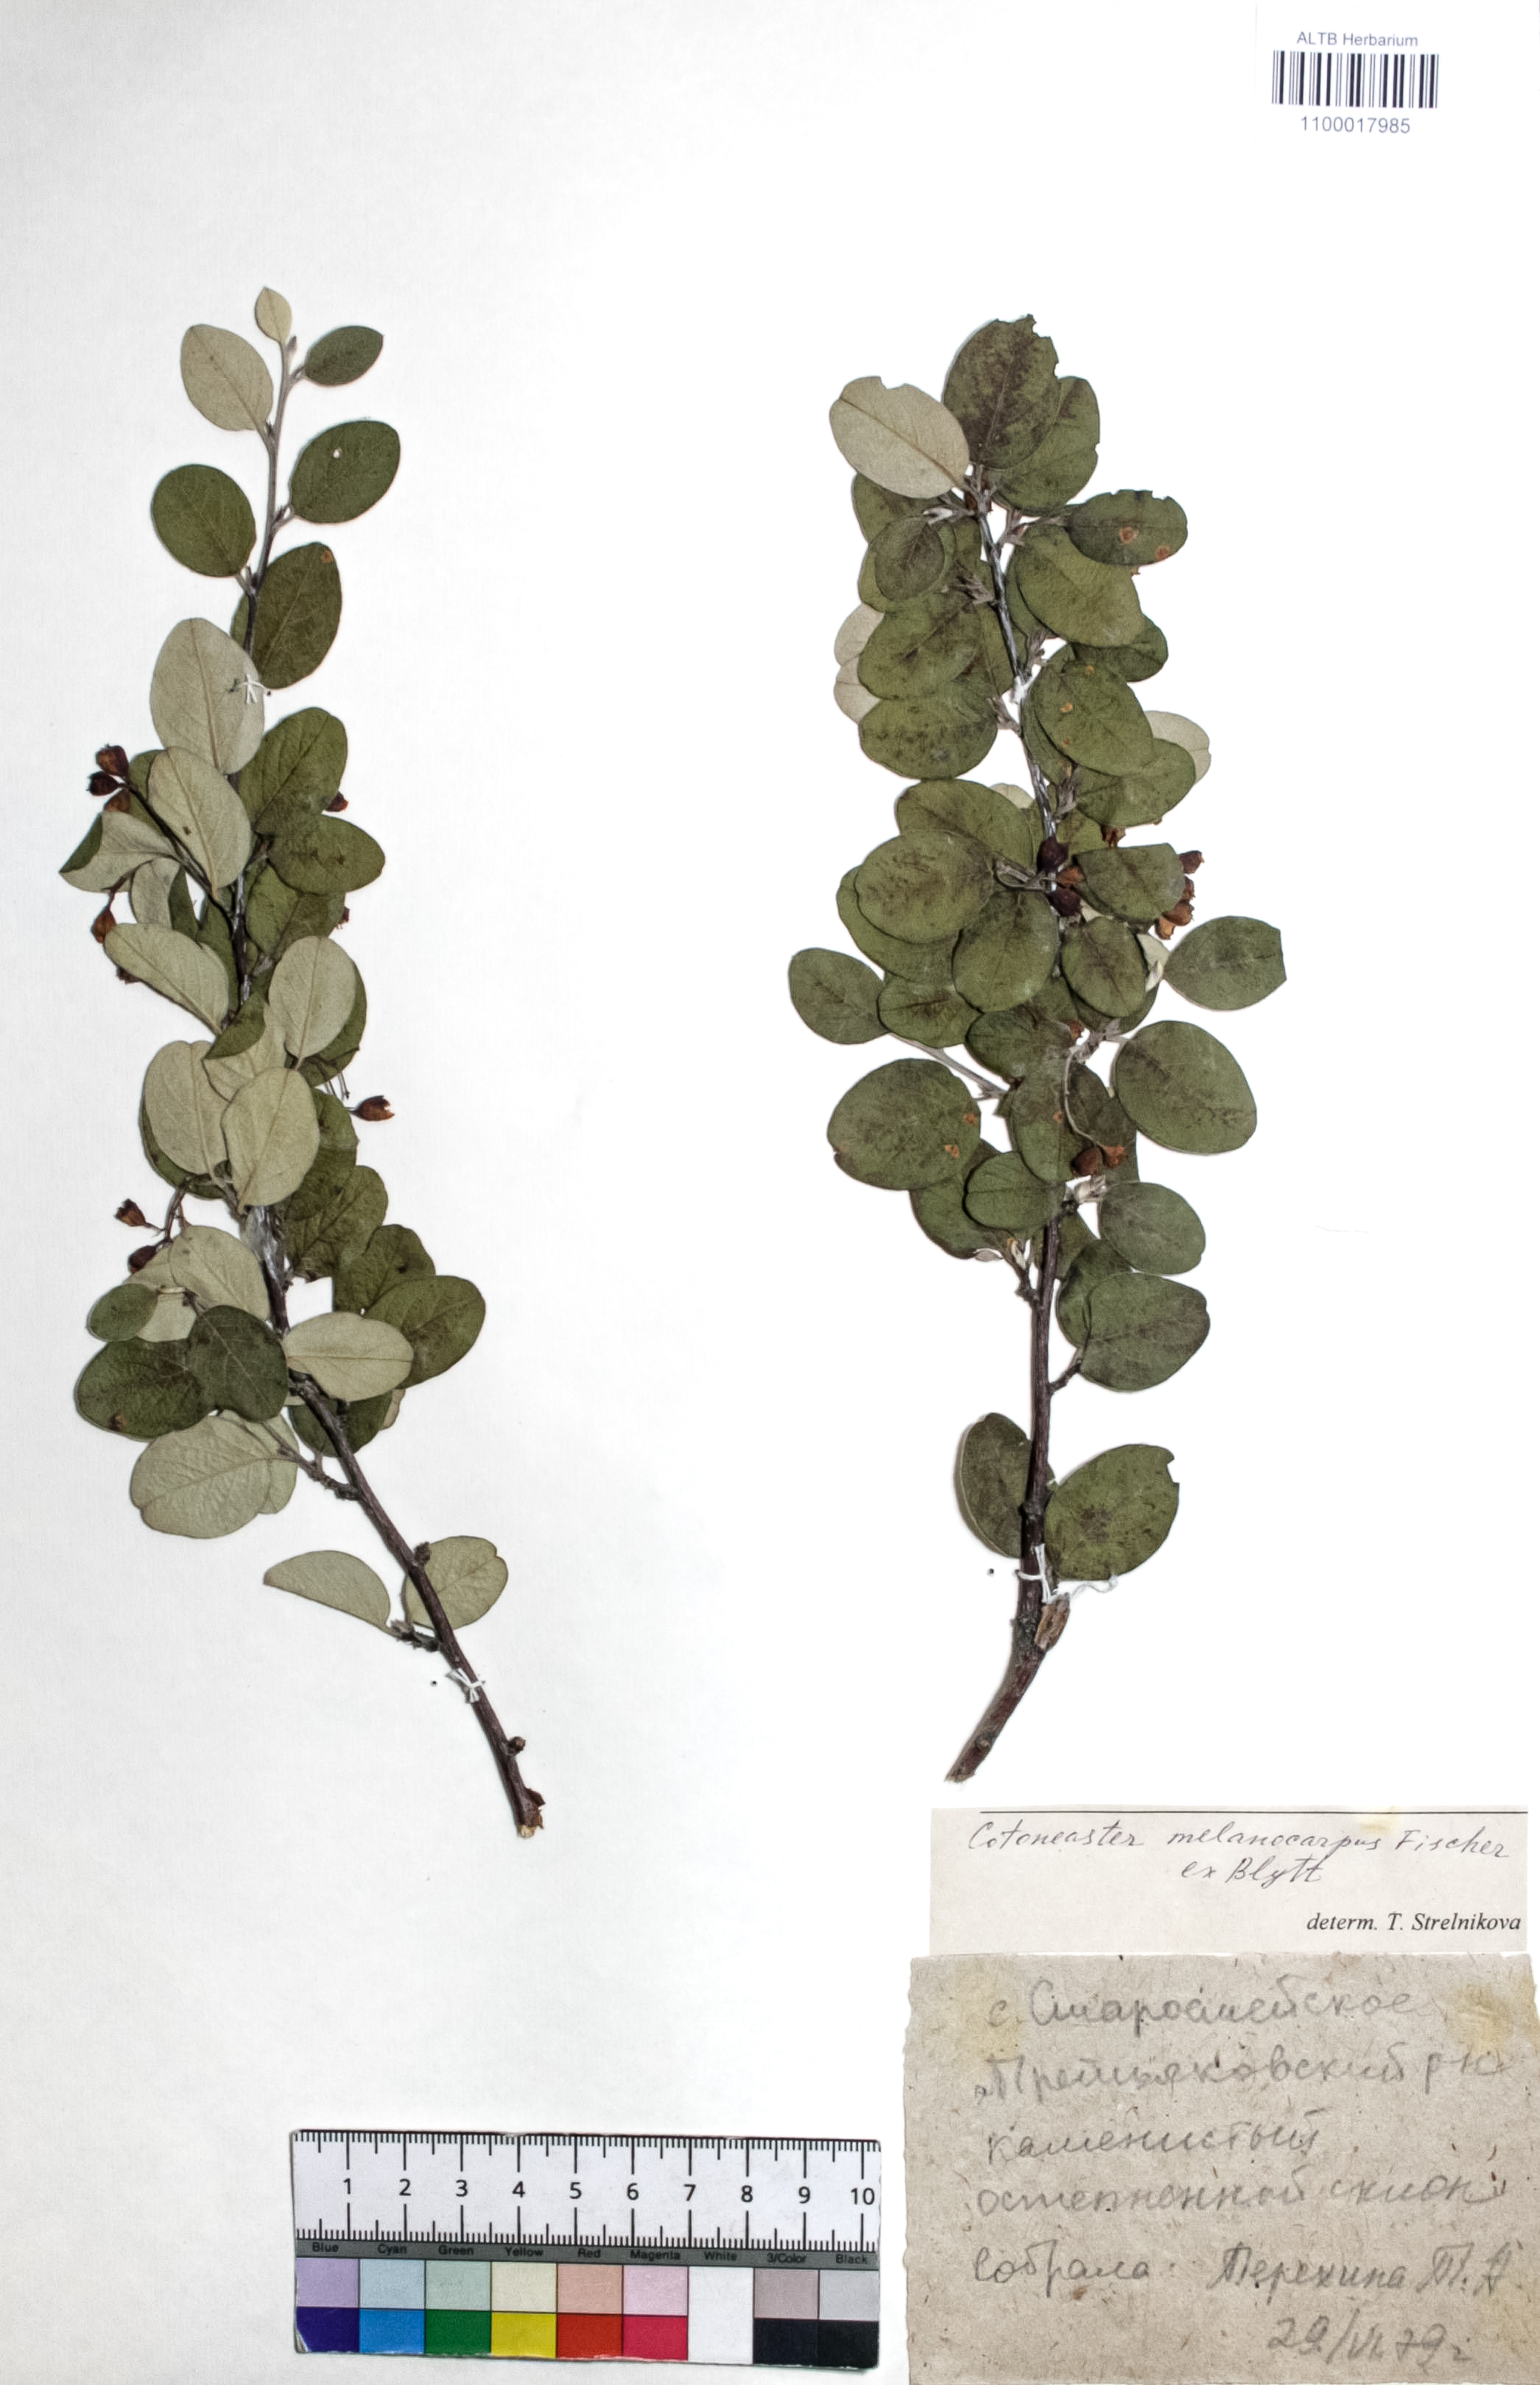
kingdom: Plantae
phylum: Tracheophyta
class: Magnoliopsida
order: Rosales
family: Rosaceae
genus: Cotoneaster
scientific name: Cotoneaster niger
